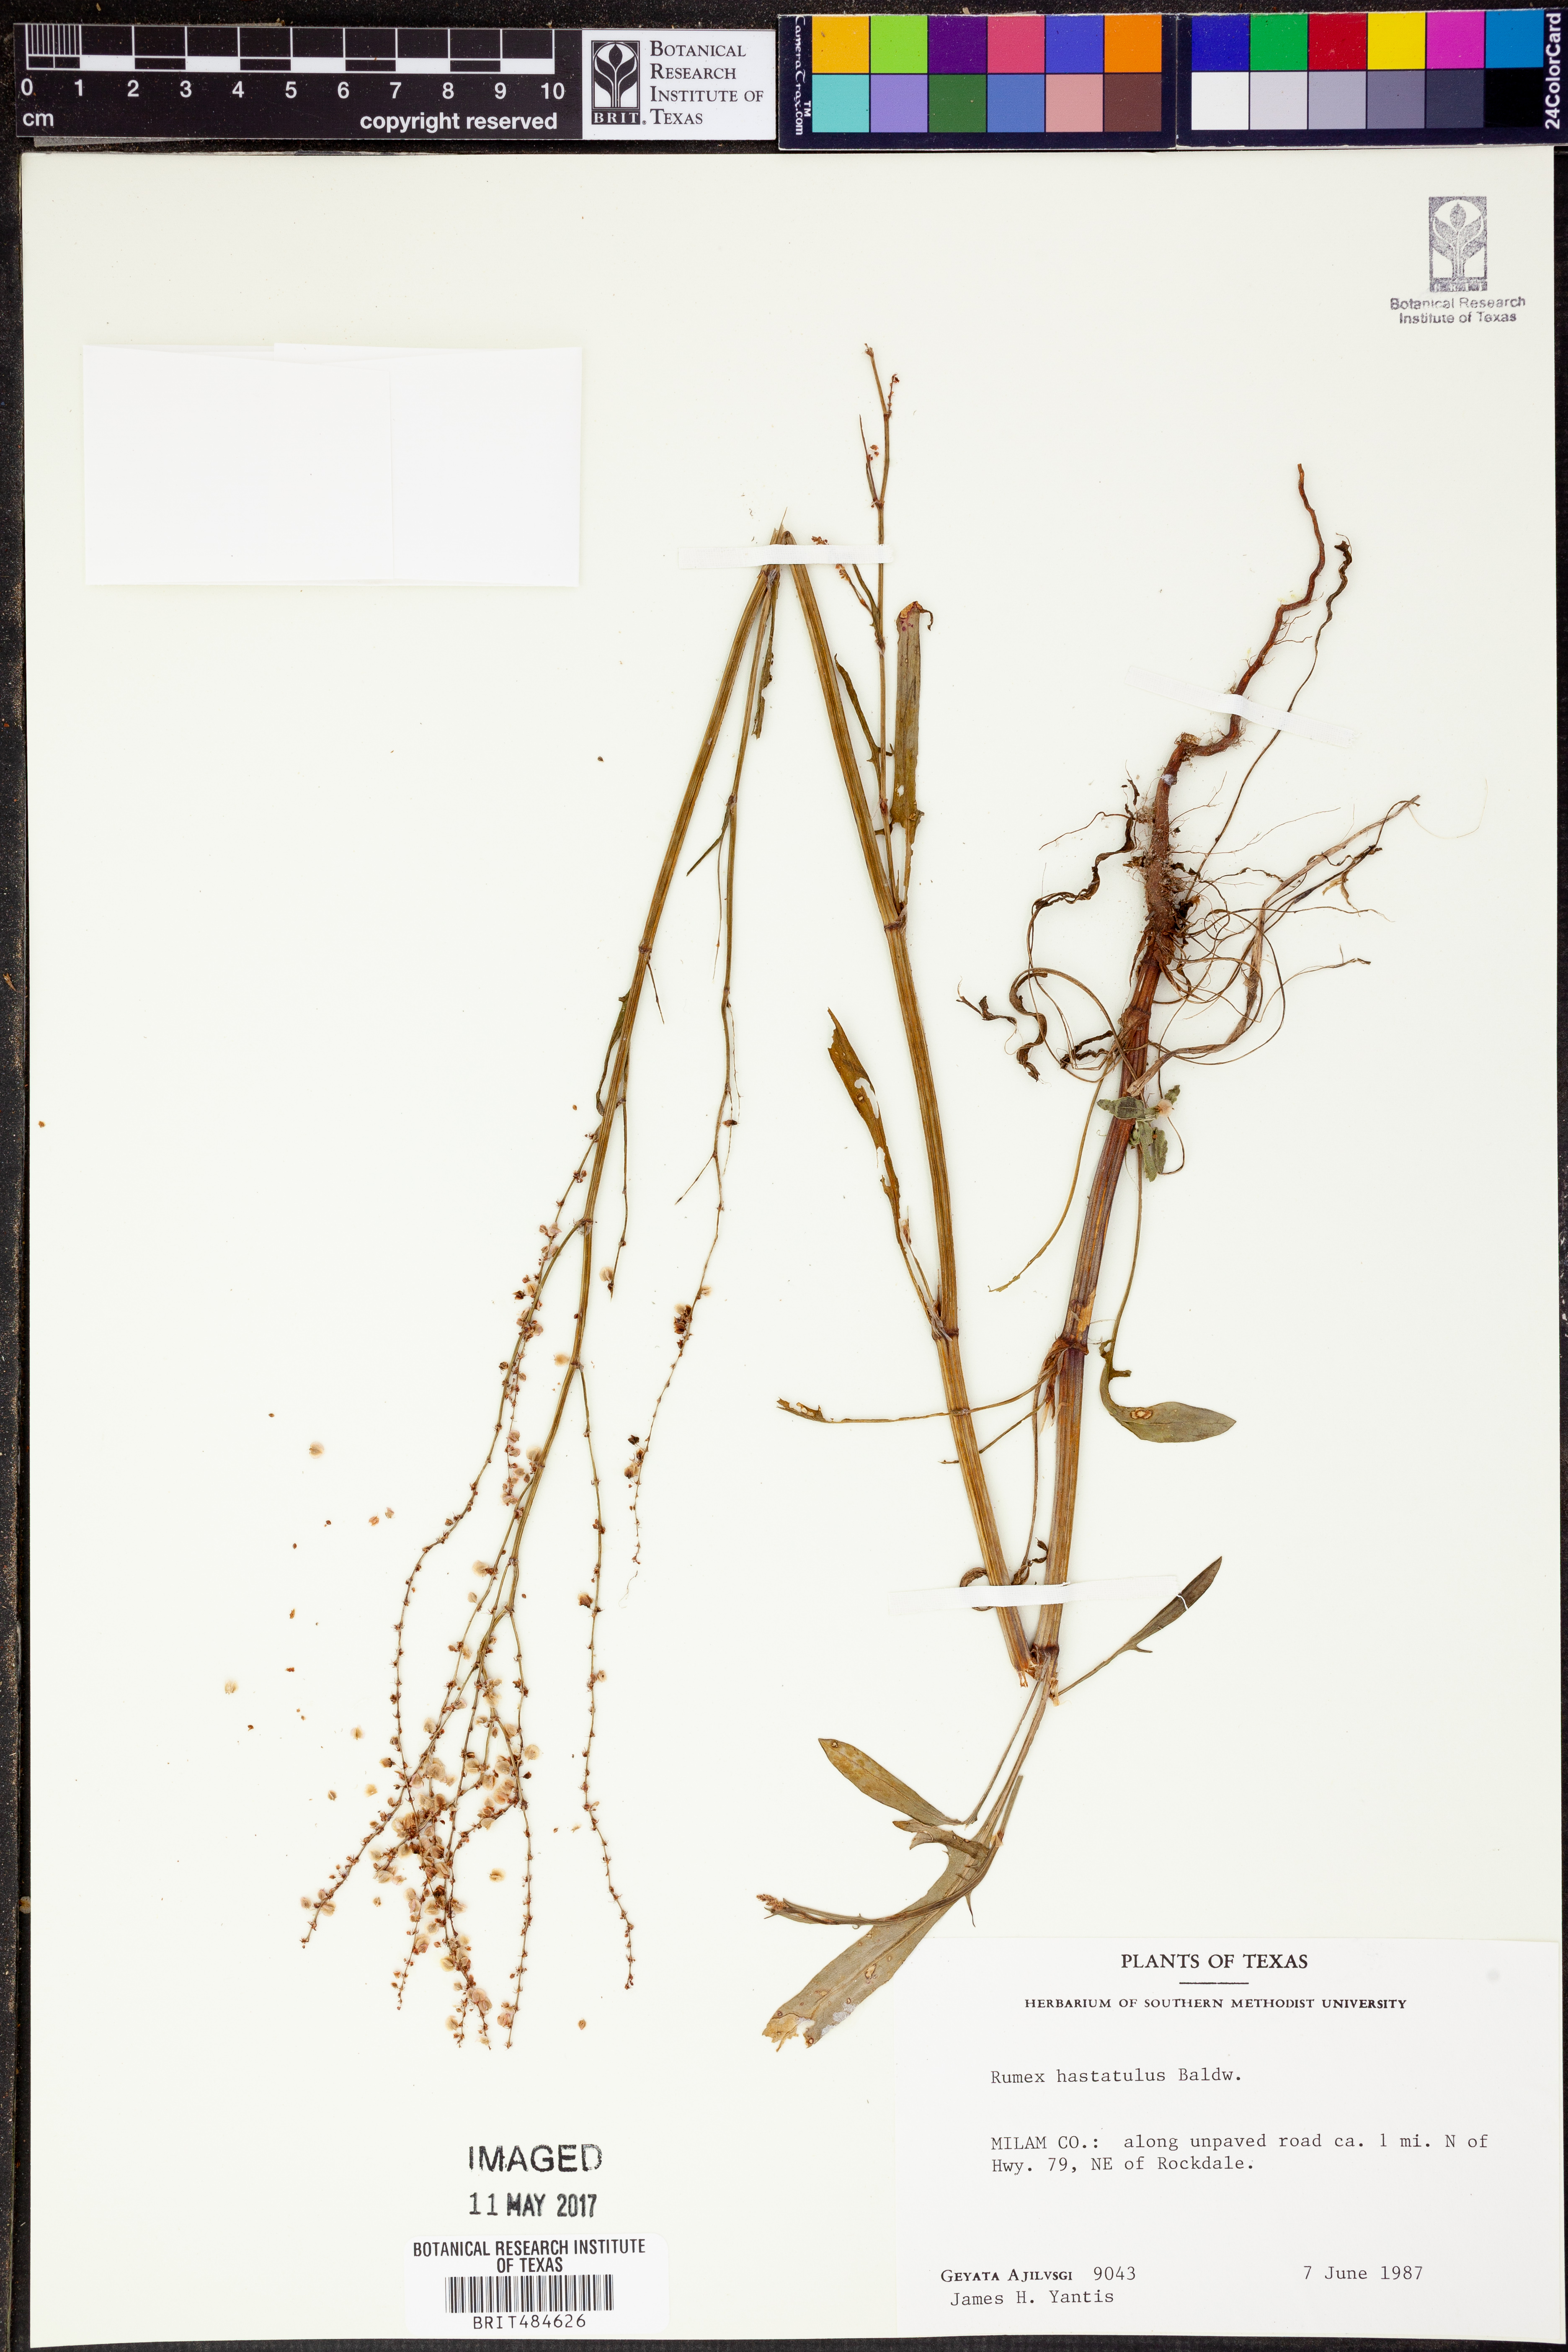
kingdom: Plantae
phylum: Tracheophyta
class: Magnoliopsida
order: Caryophyllales
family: Polygonaceae
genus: Rumex
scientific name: Rumex hastatulus
